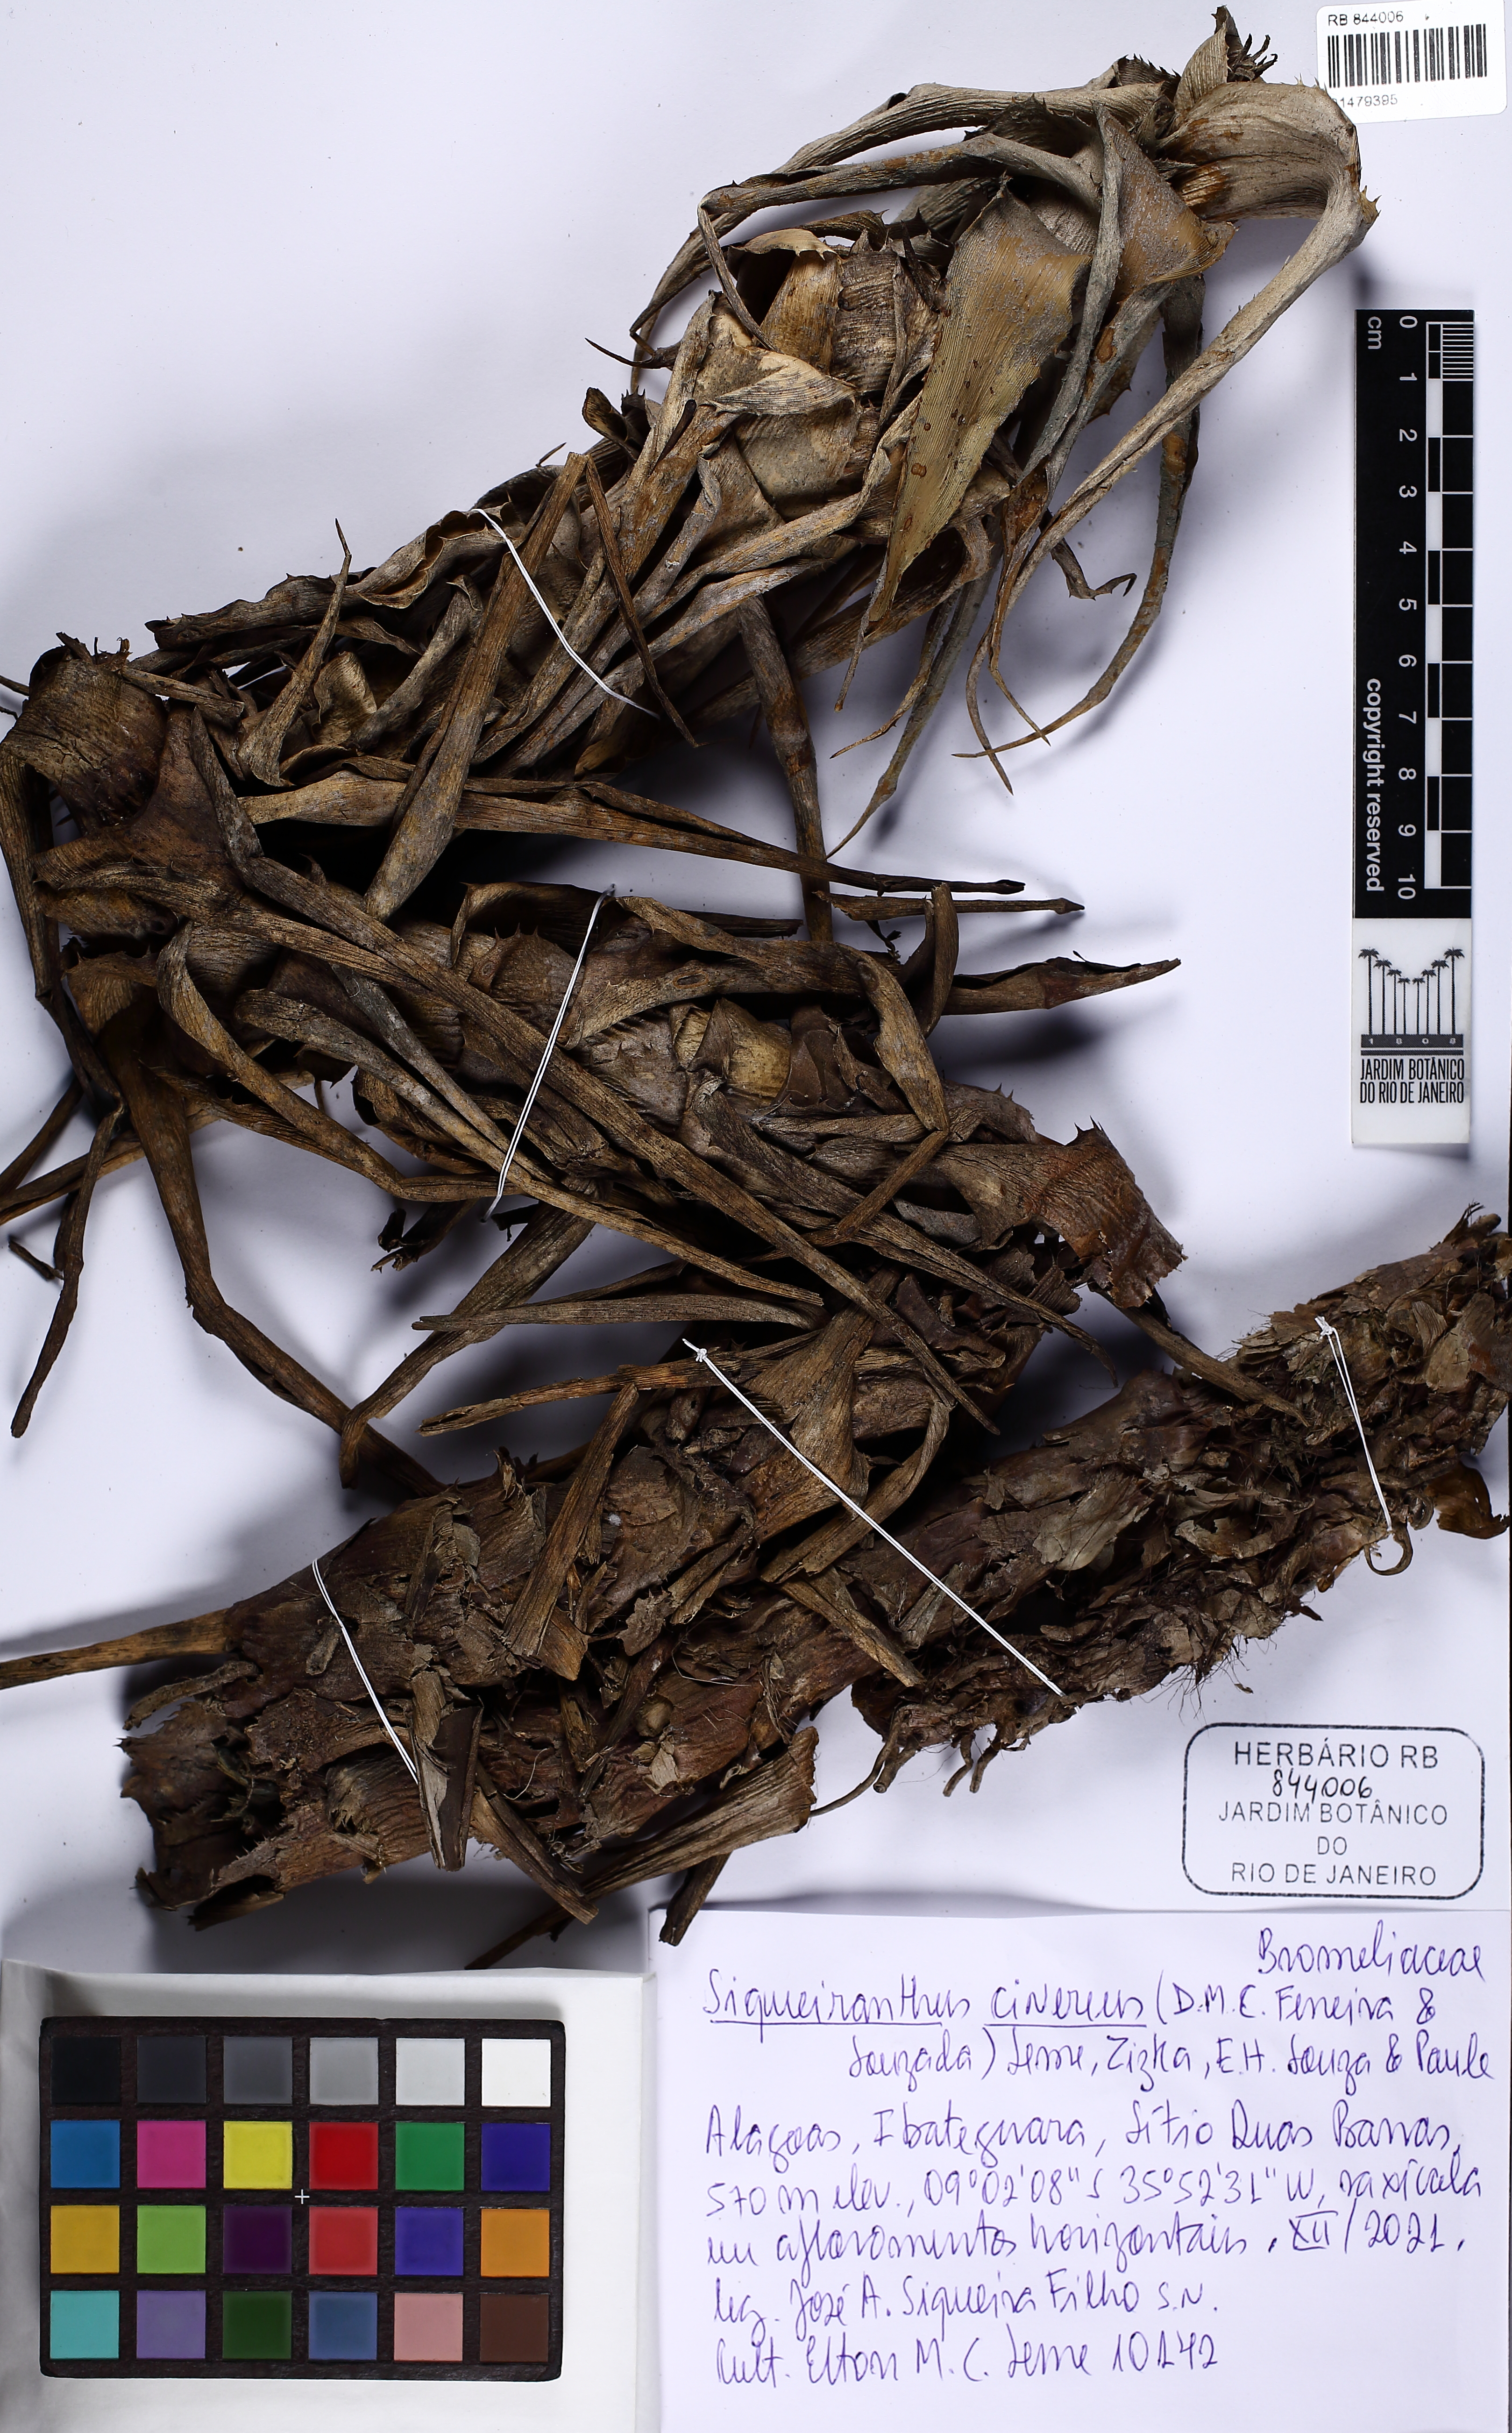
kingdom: Plantae
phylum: Tracheophyta
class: Liliopsida
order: Poales
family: Bromeliaceae
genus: Cryptanthus
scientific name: Cryptanthus cinereus
